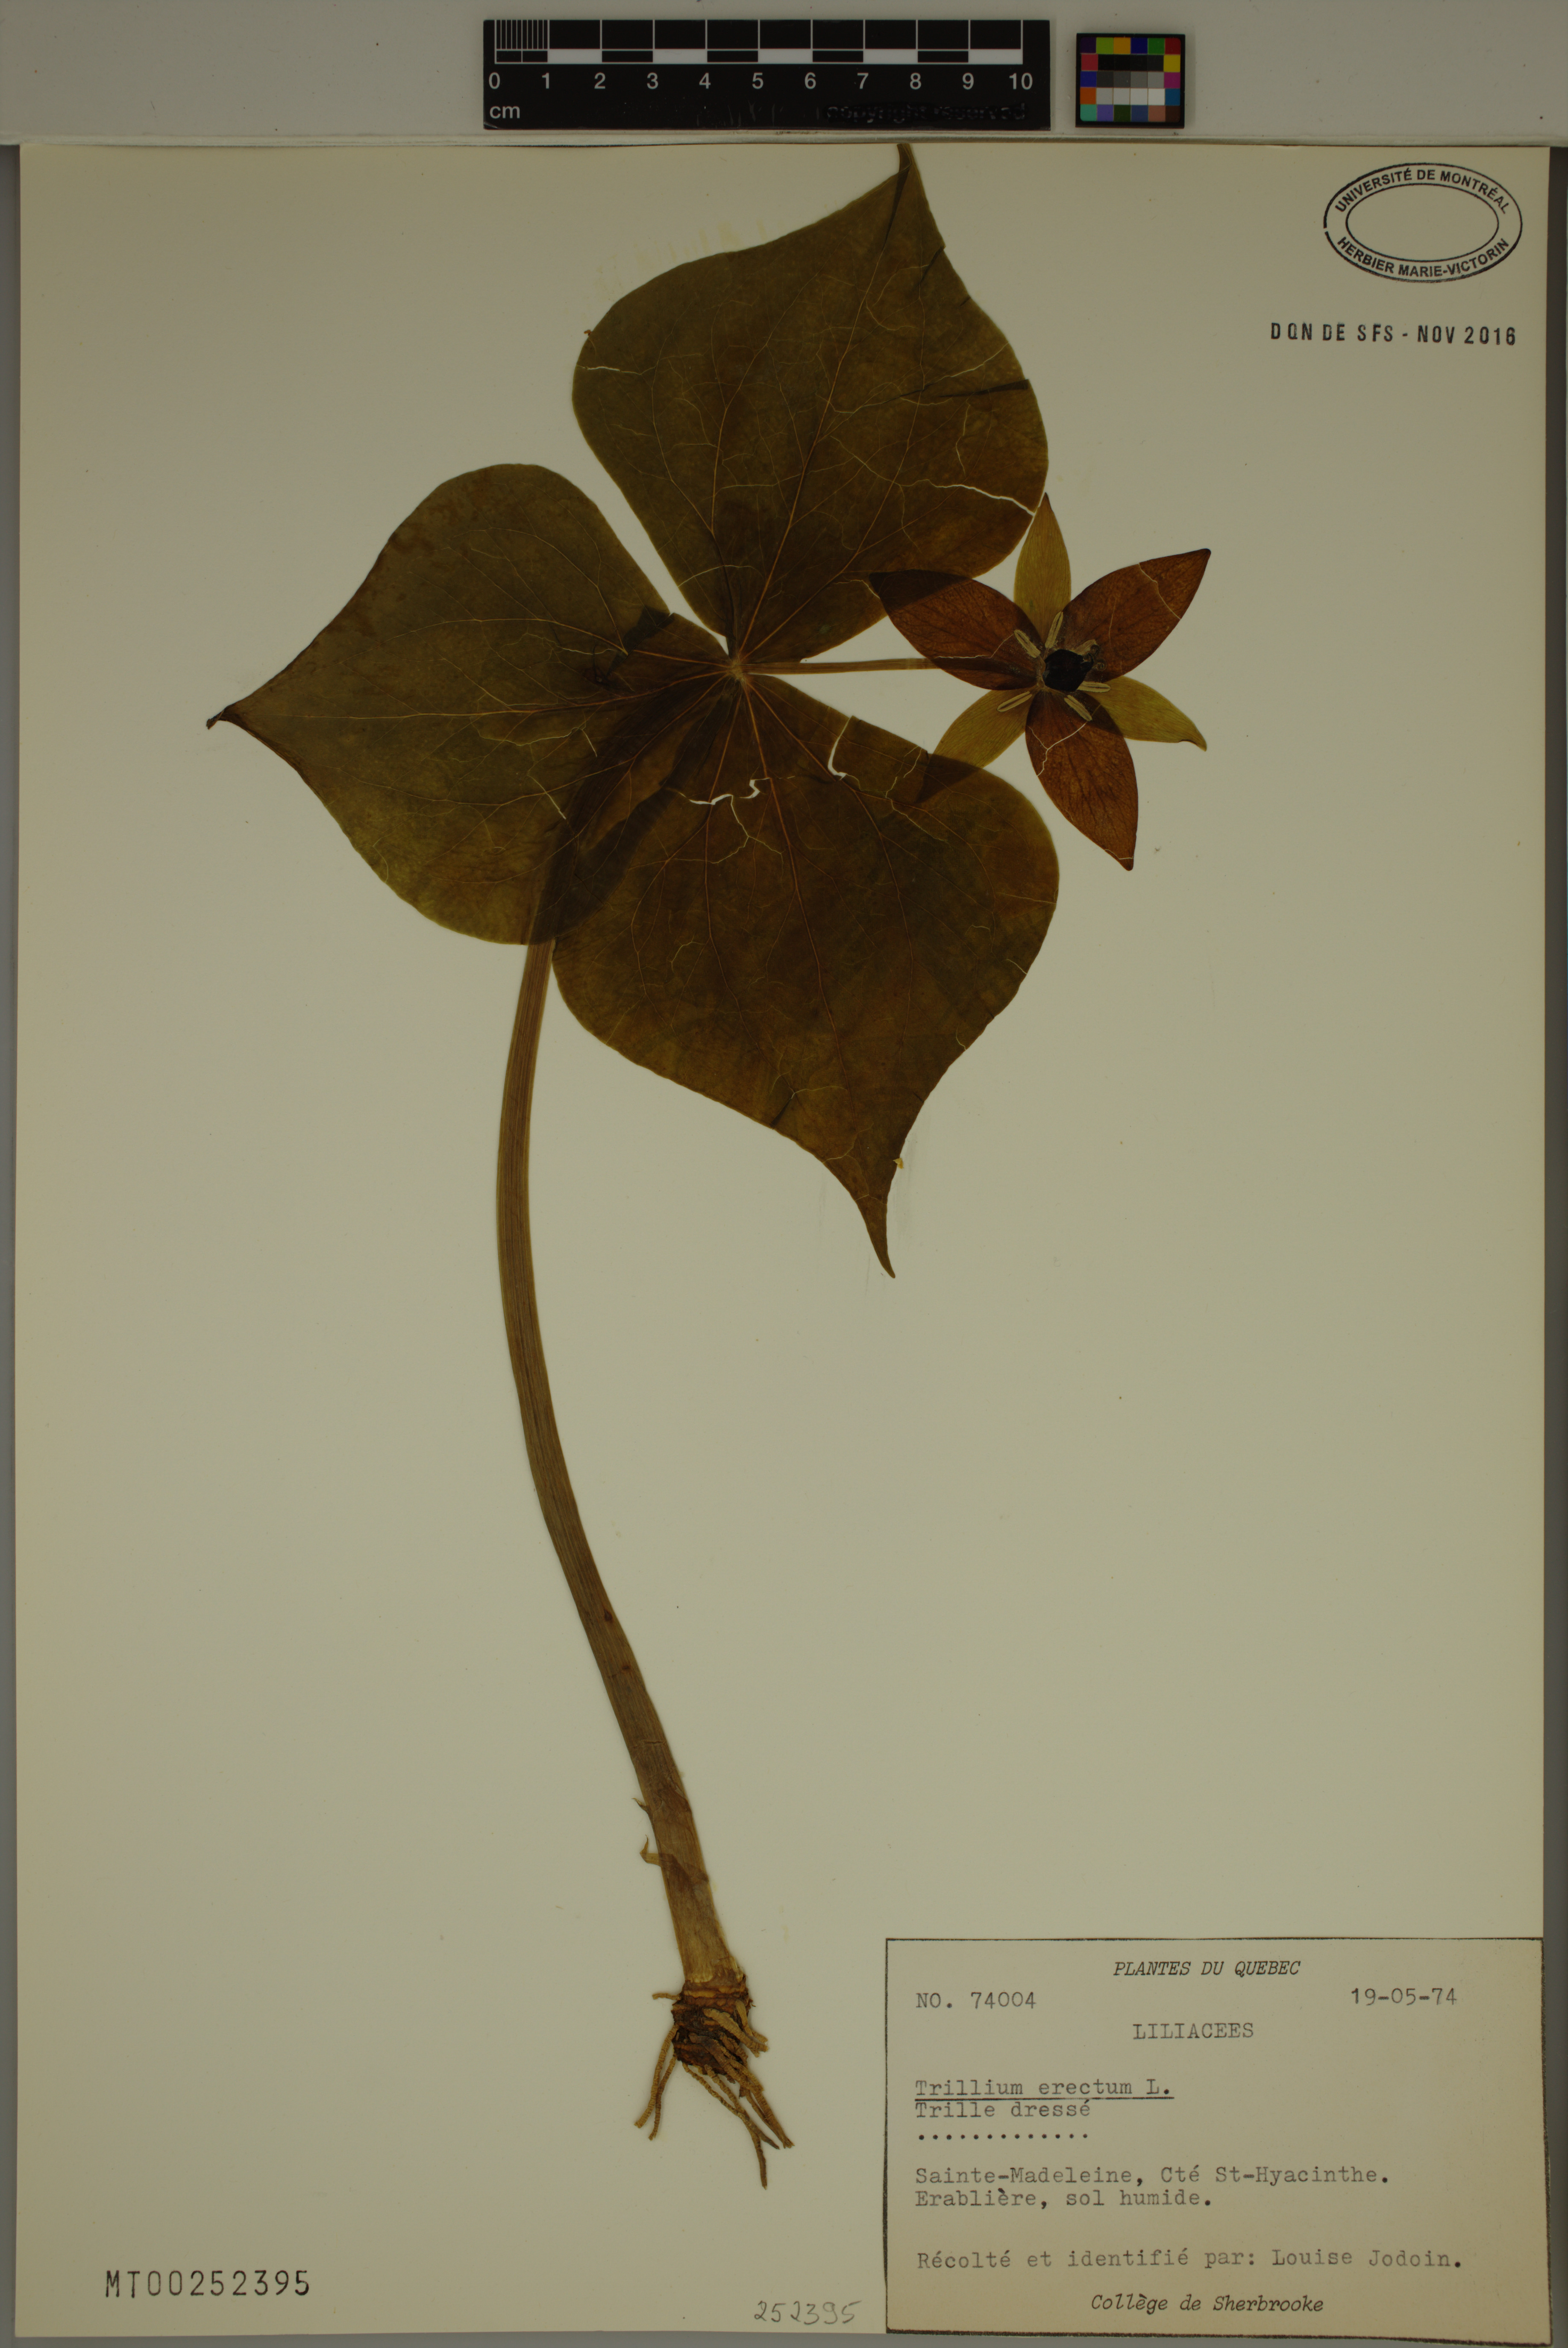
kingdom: Plantae
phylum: Tracheophyta
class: Liliopsida
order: Liliales
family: Melanthiaceae
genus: Trillium
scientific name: Trillium erectum
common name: Purple trillium
